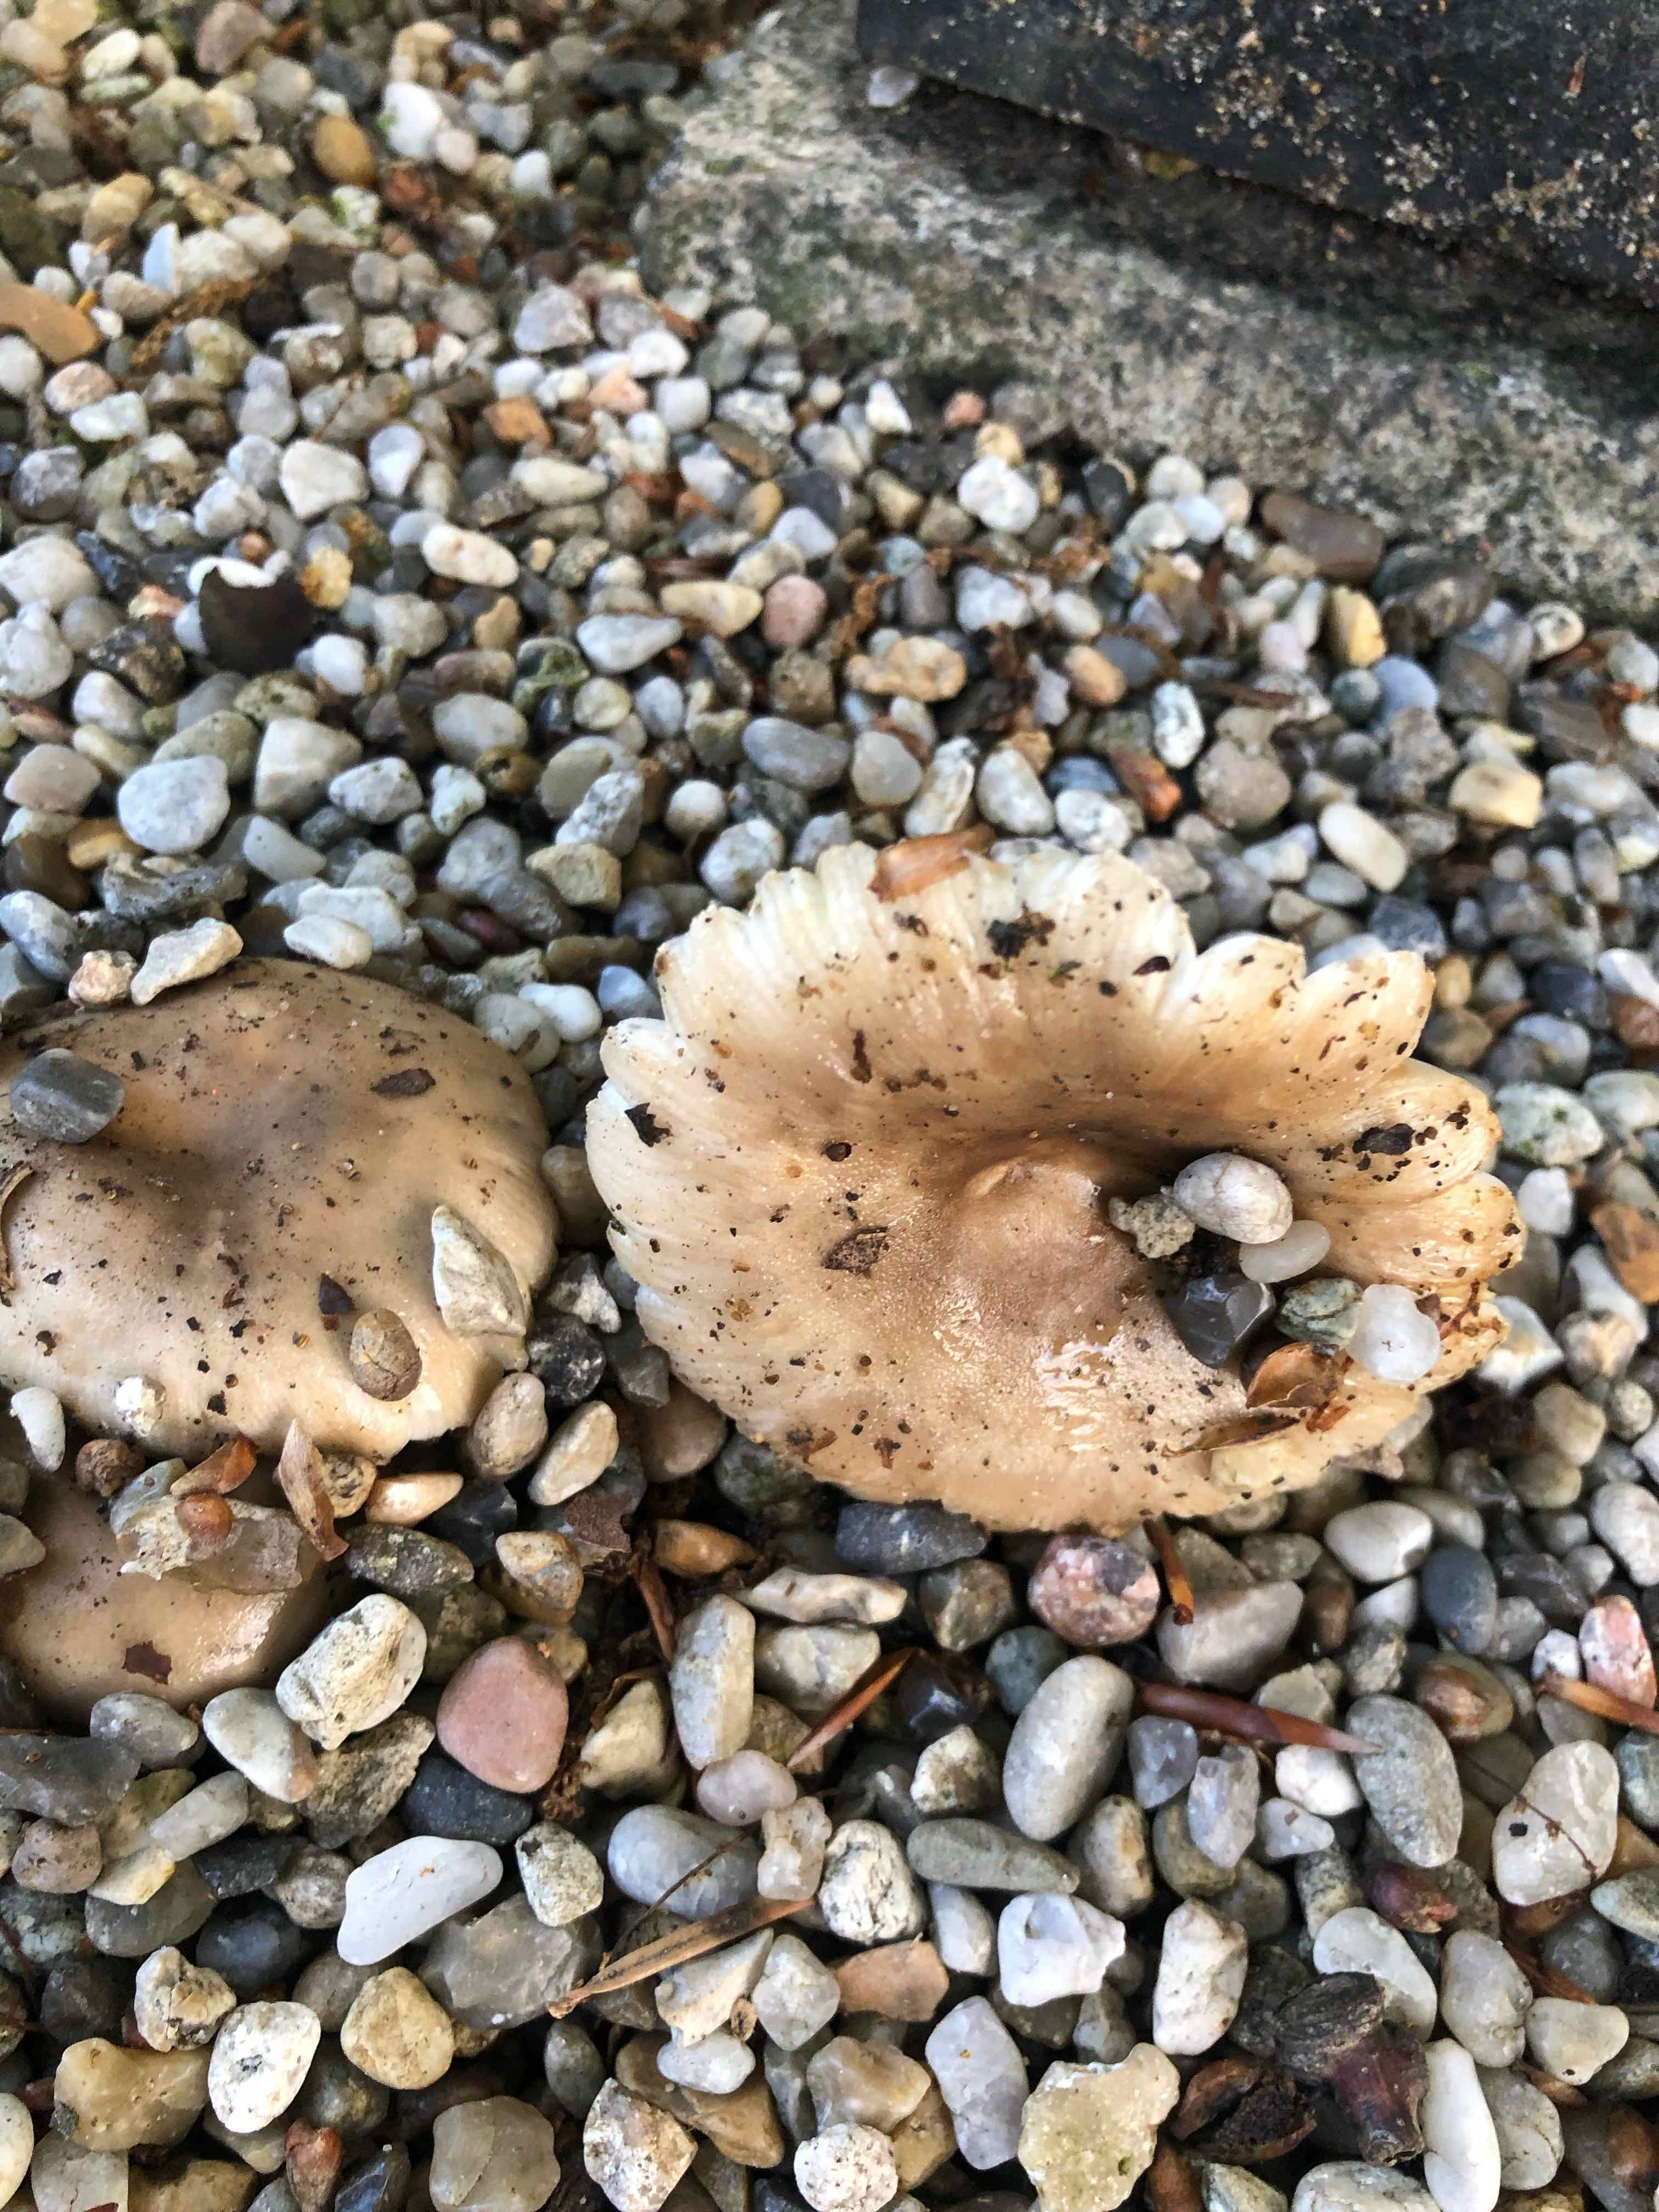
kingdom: Fungi
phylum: Basidiomycota
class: Agaricomycetes
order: Russulales
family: Russulaceae
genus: Russula
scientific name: Russula recondita
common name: mild kam-skørhat
